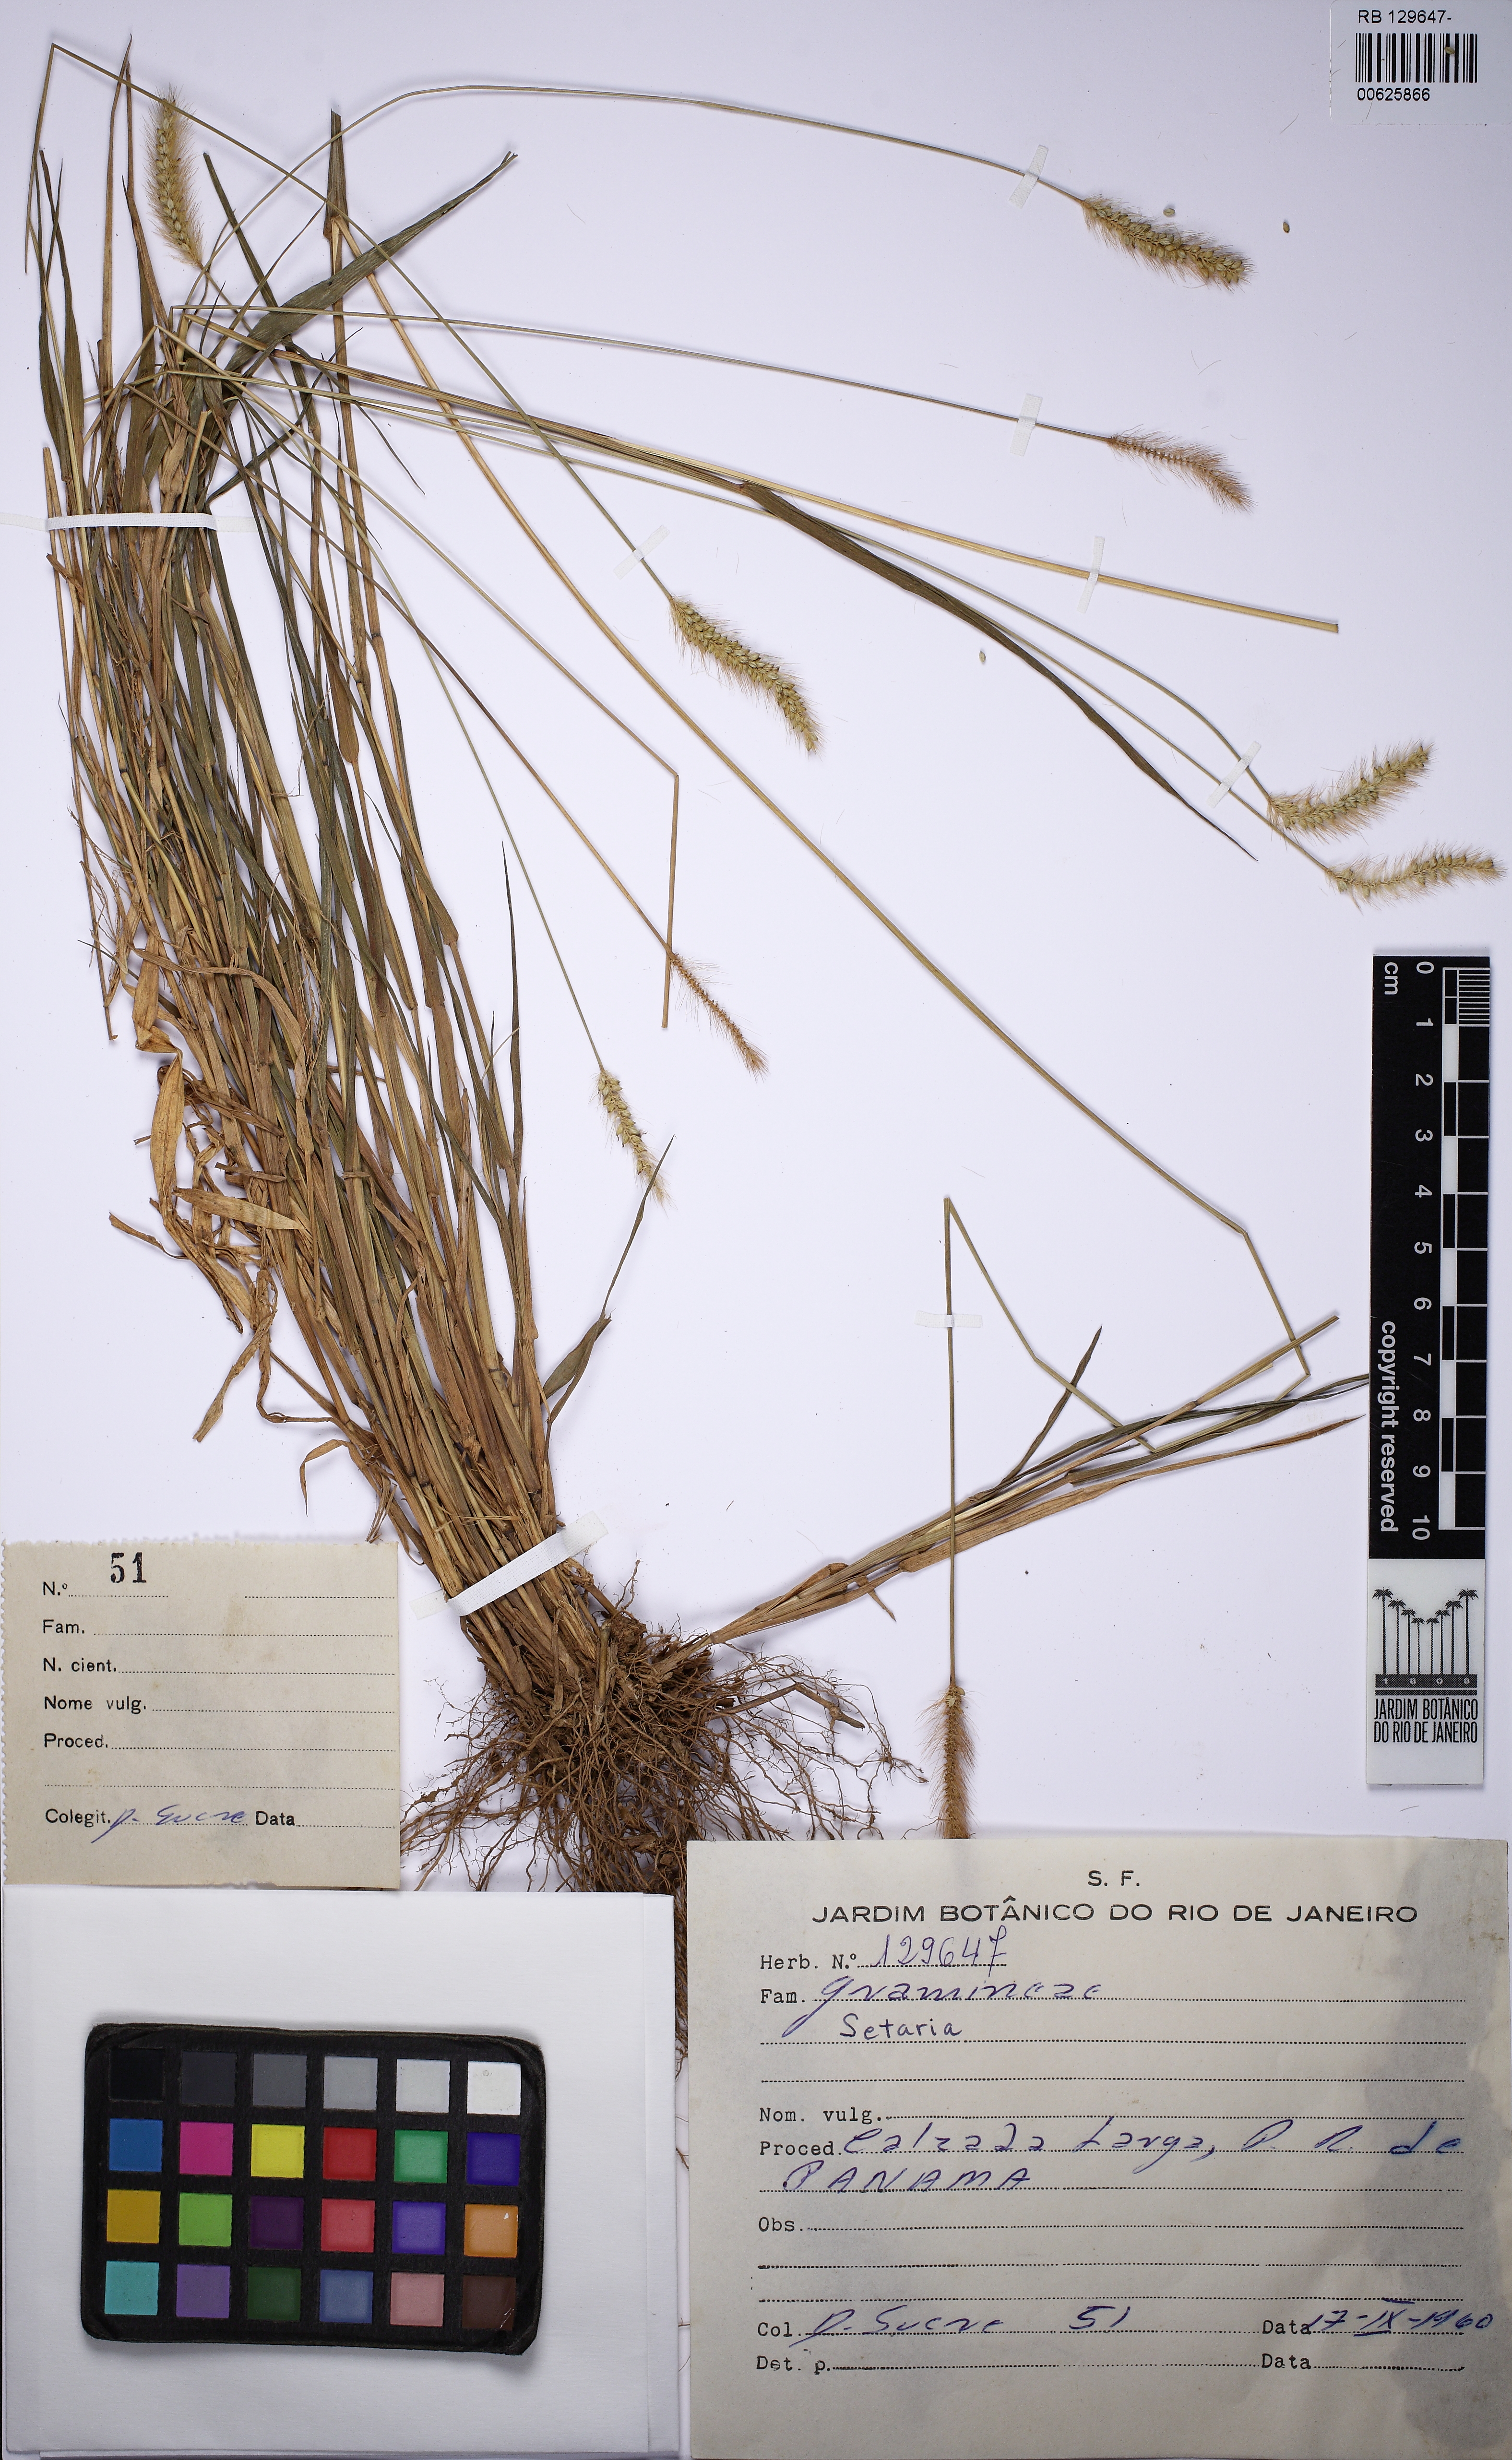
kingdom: Plantae
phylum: Tracheophyta
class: Liliopsida
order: Poales
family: Poaceae
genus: Setaria
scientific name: Setaria
